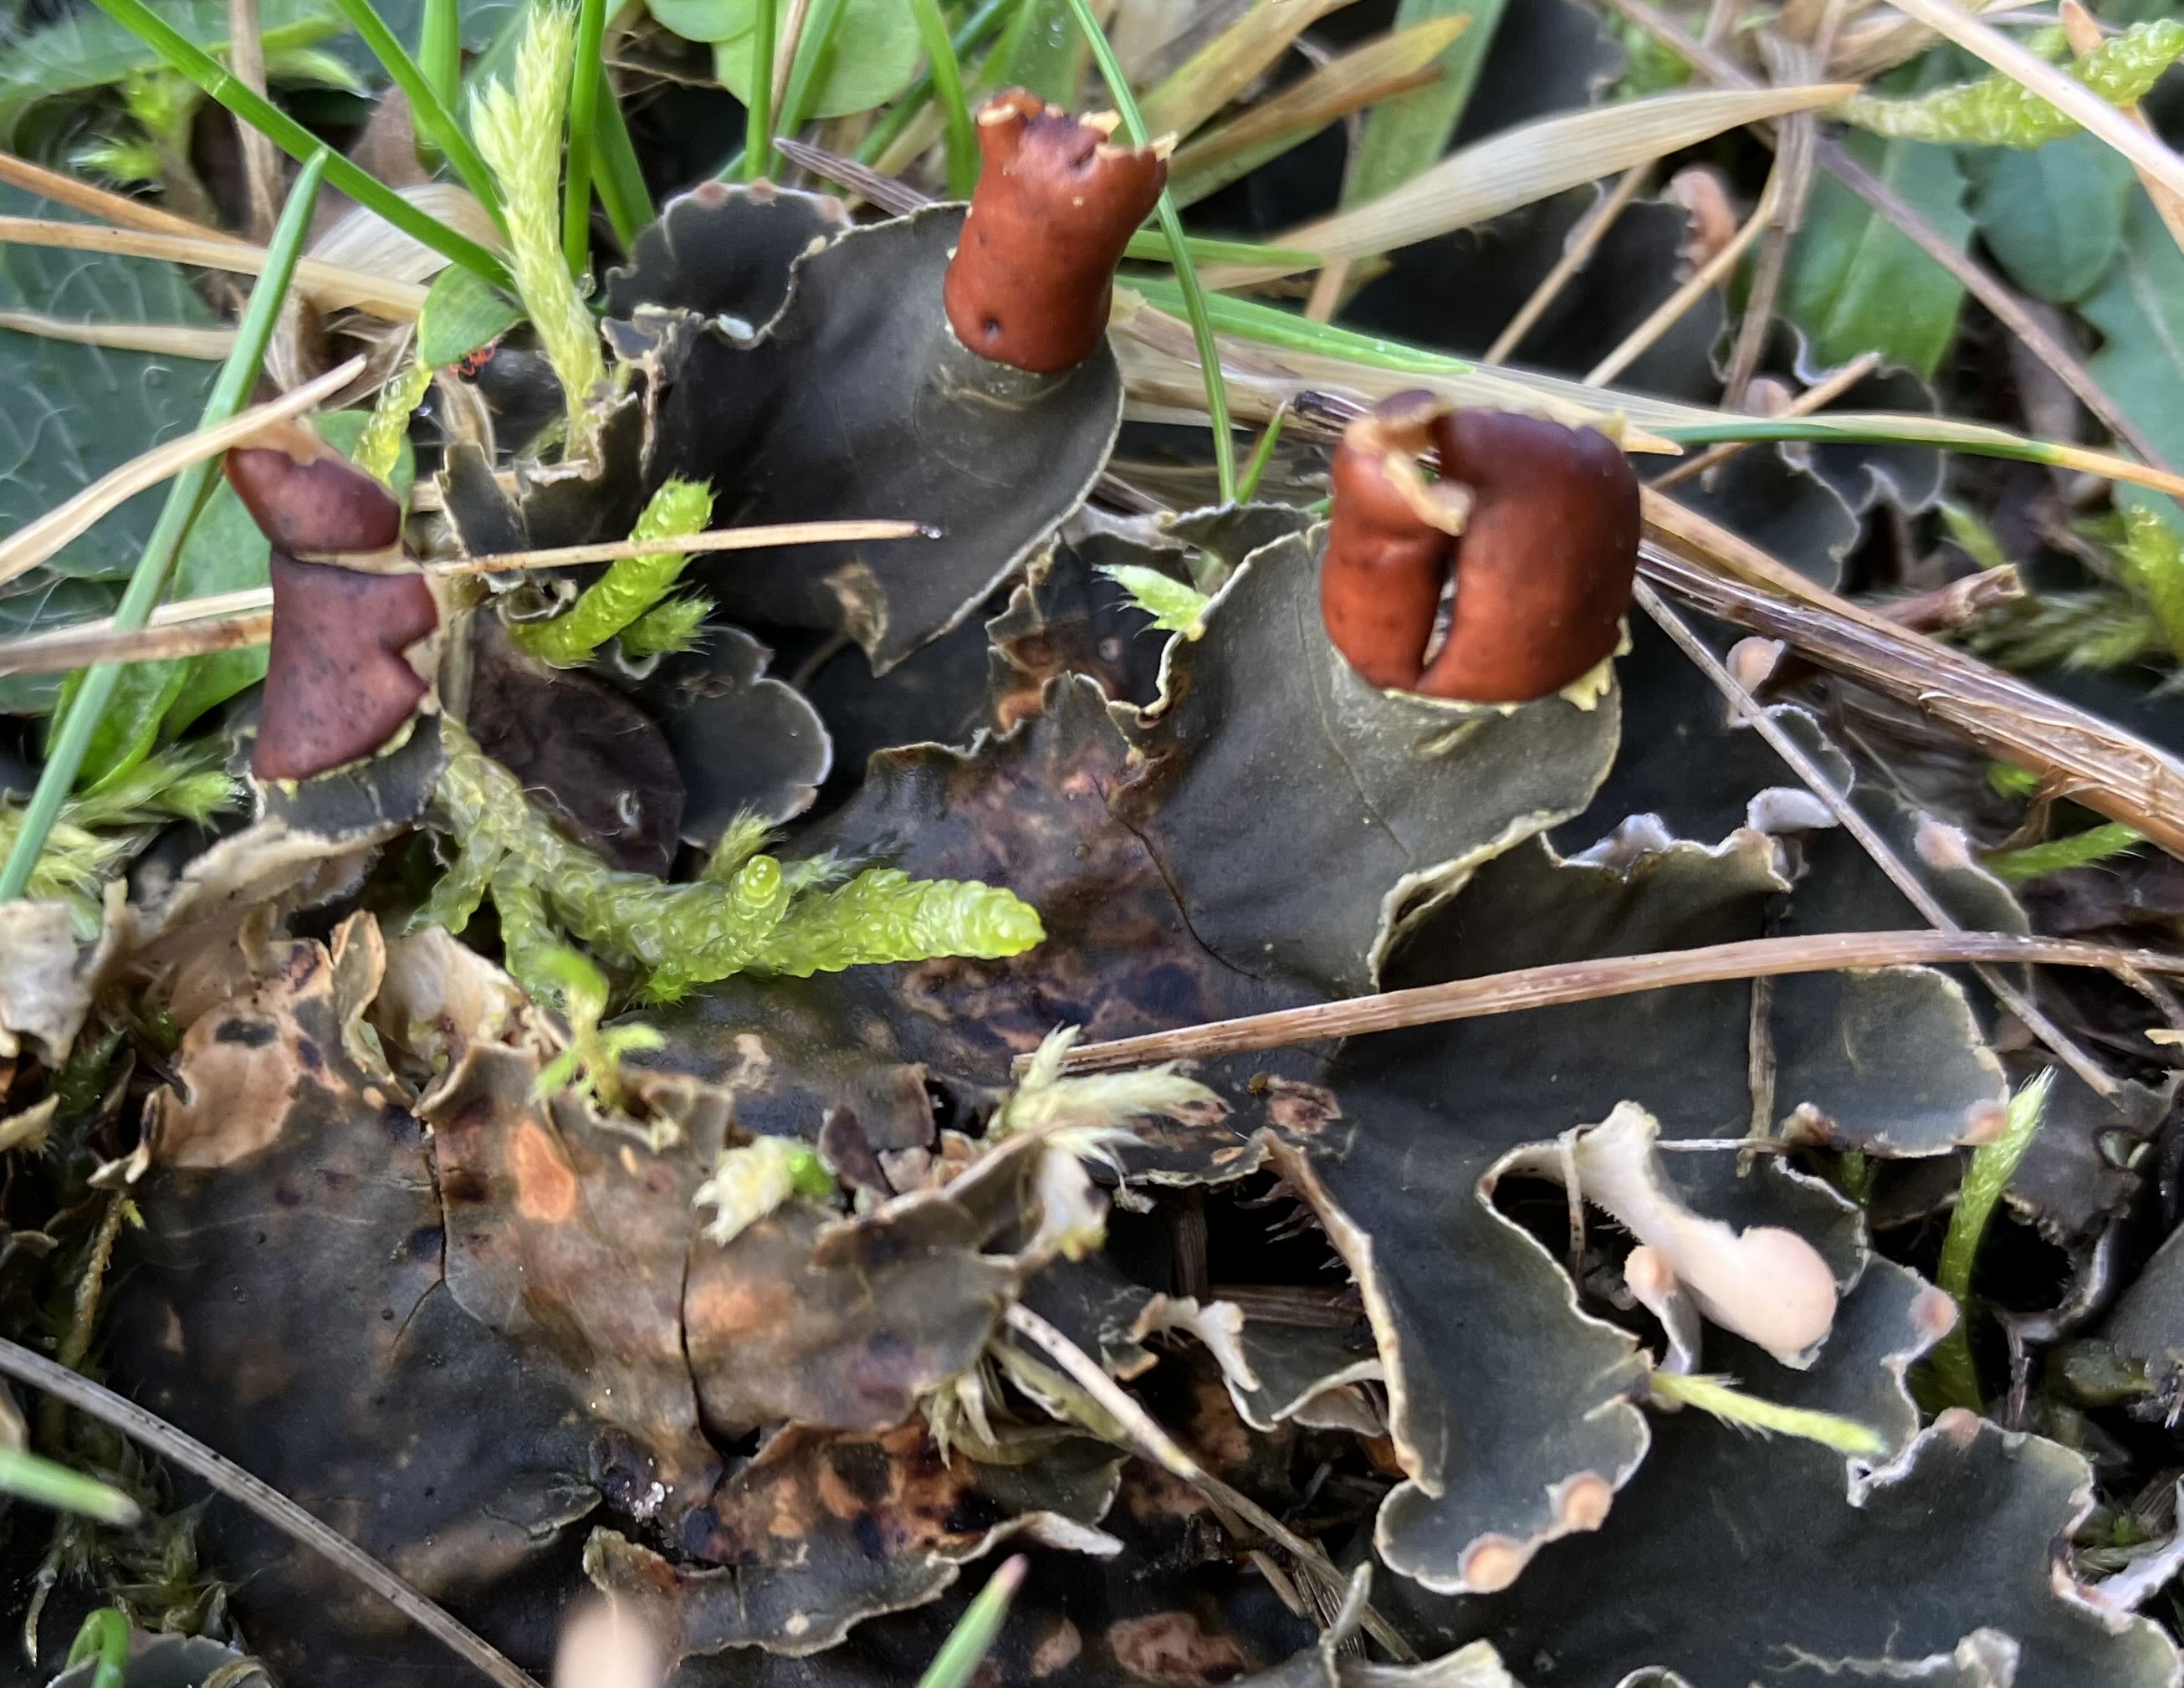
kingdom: Fungi
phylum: Ascomycota
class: Lecanoromycetes
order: Peltigerales
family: Peltigeraceae
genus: Peltigera
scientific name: Peltigera
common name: skjoldlav
